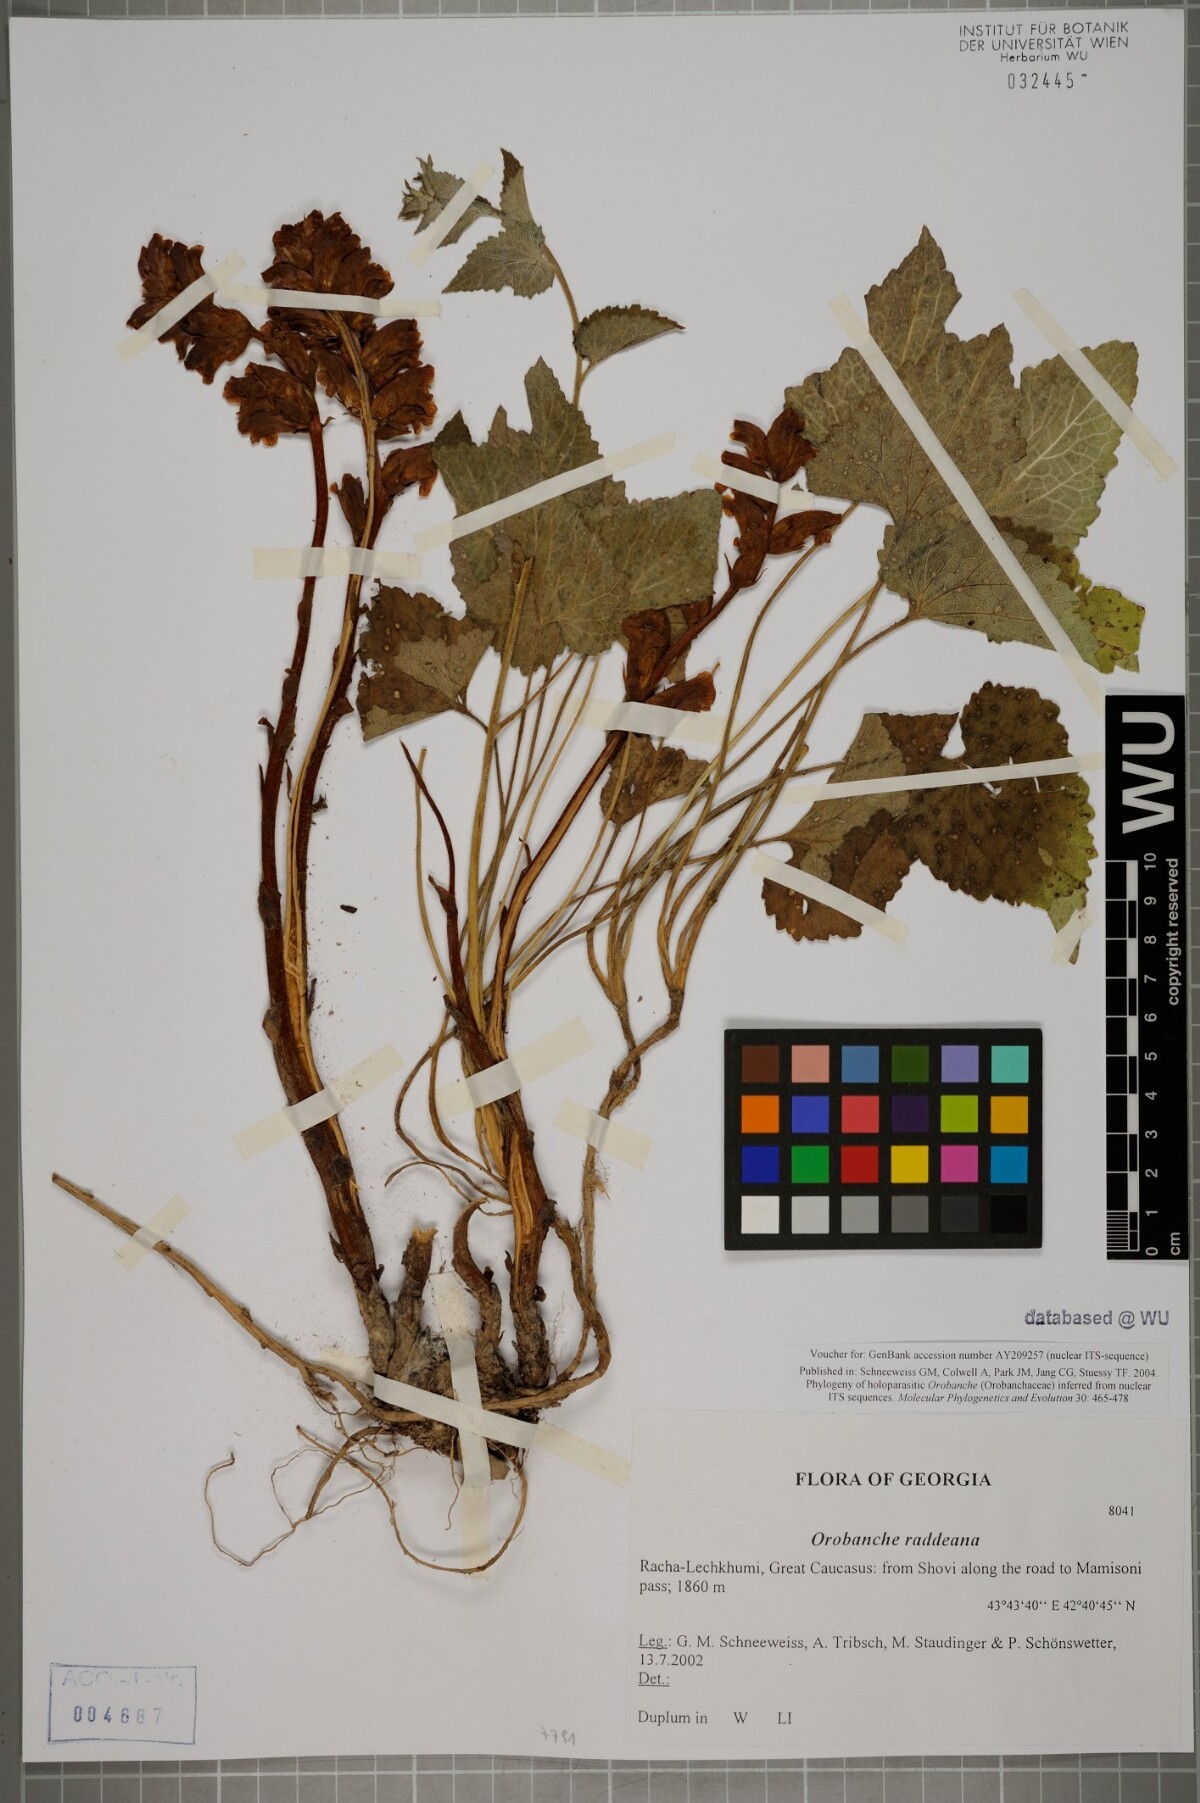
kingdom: Plantae
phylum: Tracheophyta
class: Magnoliopsida
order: Lamiales
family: Orobanchaceae
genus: Orobanche
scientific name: Orobanche alba
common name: Thyme broomrape
